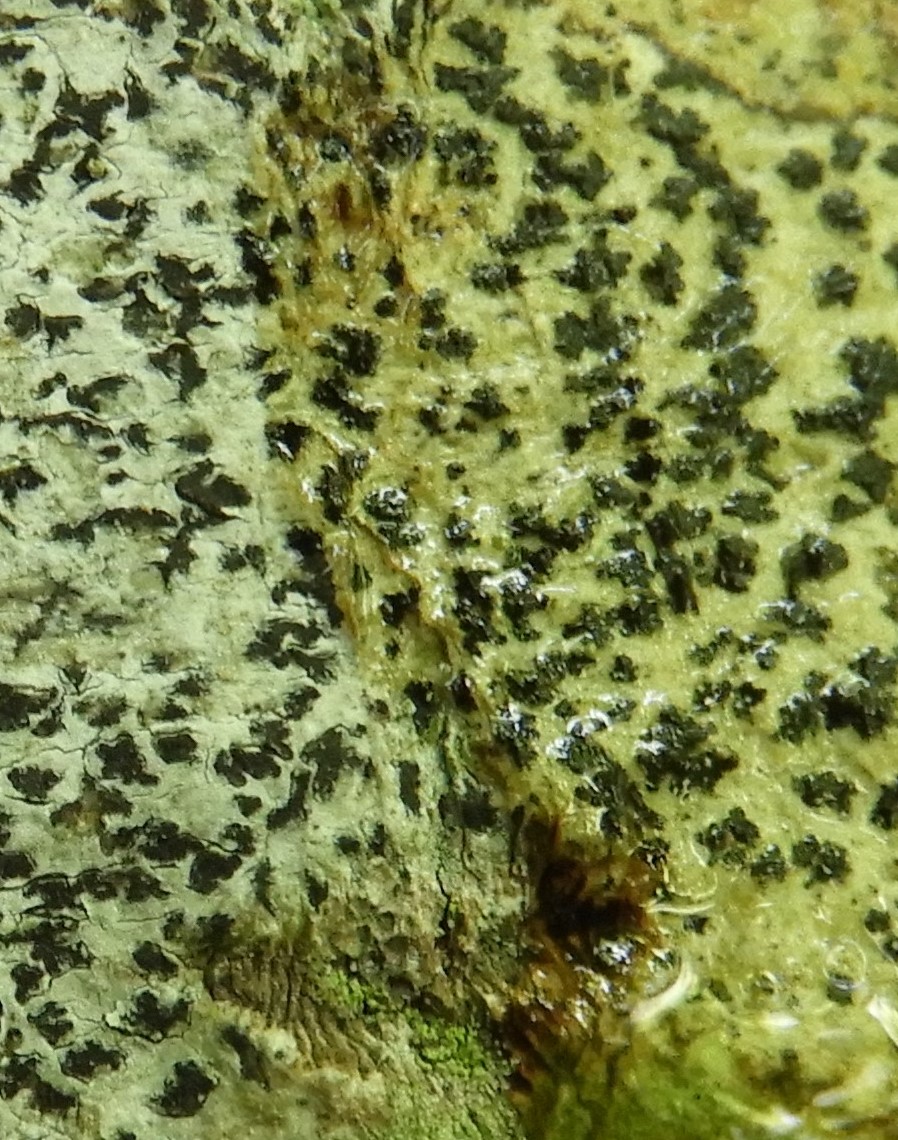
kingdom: Fungi
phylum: Ascomycota
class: Arthoniomycetes
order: Arthoniales
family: Arthoniaceae
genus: Arthonia
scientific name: Arthonia radiata
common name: stjerne-pletlav
